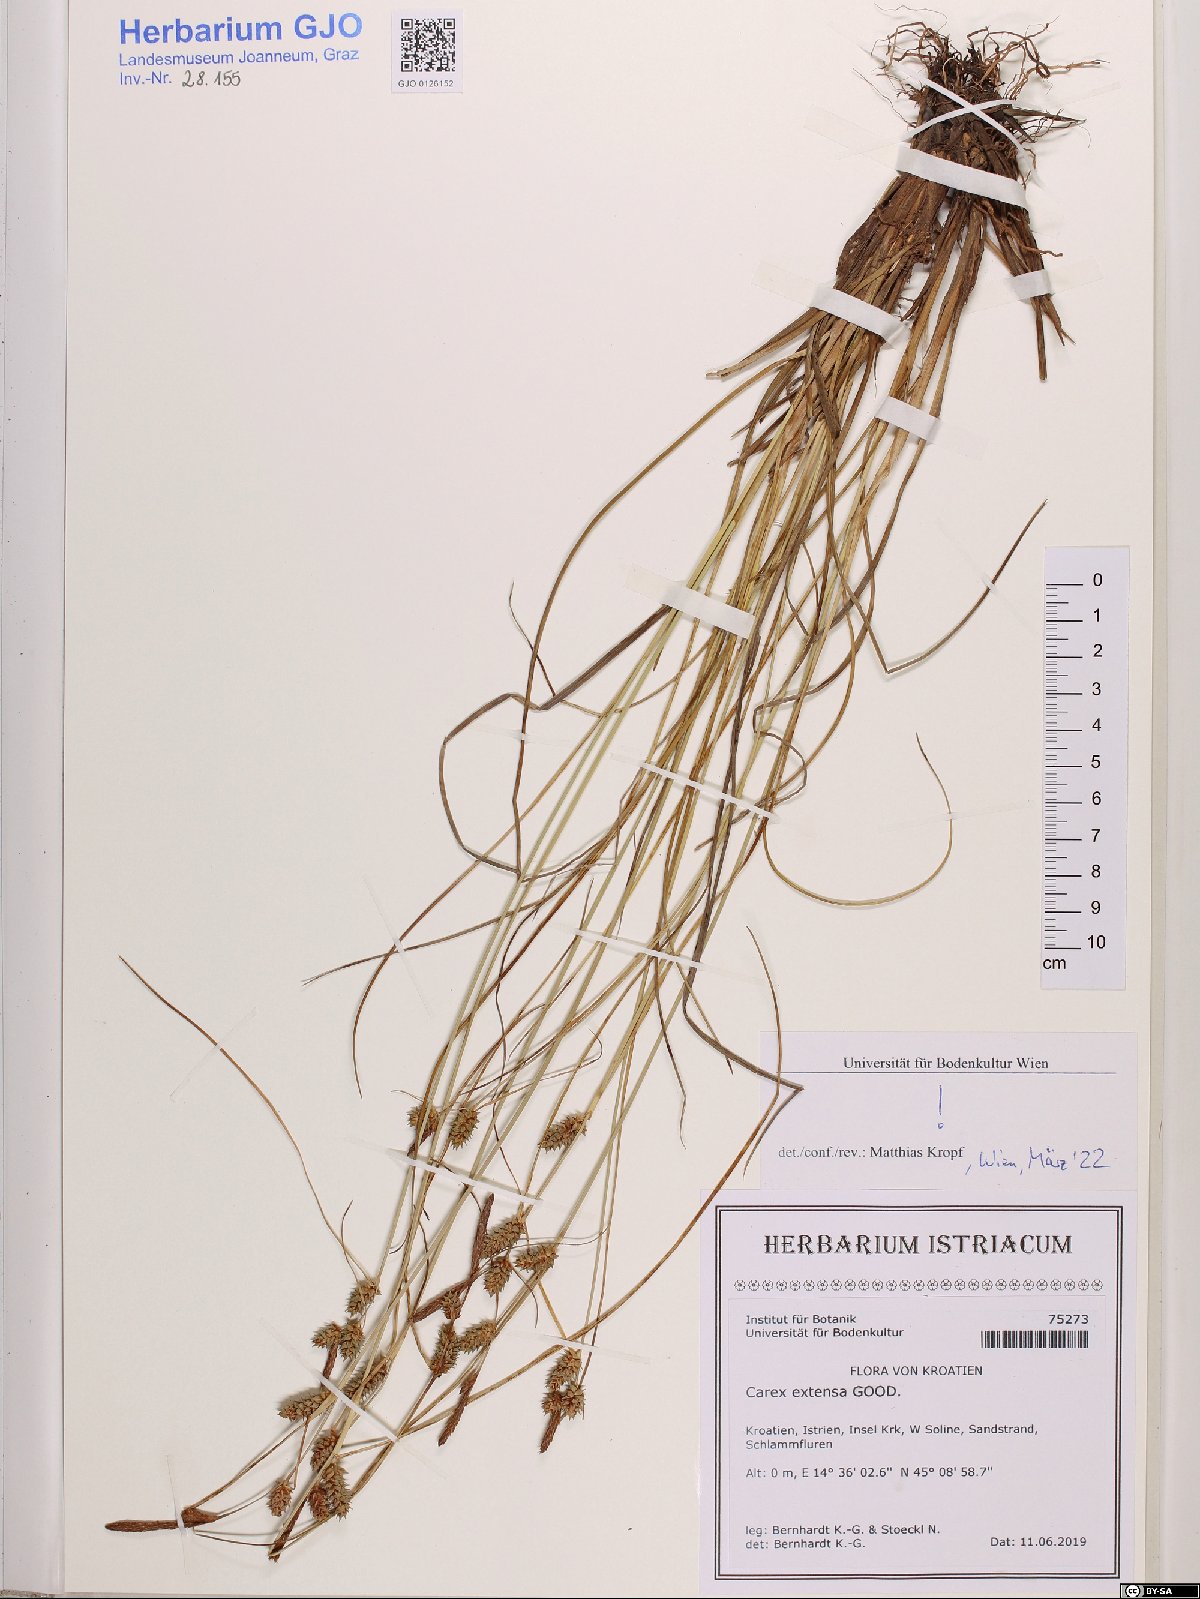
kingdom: Plantae
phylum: Tracheophyta
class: Liliopsida
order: Poales
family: Cyperaceae
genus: Carex
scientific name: Carex extensa
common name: Long-bracted sedge
